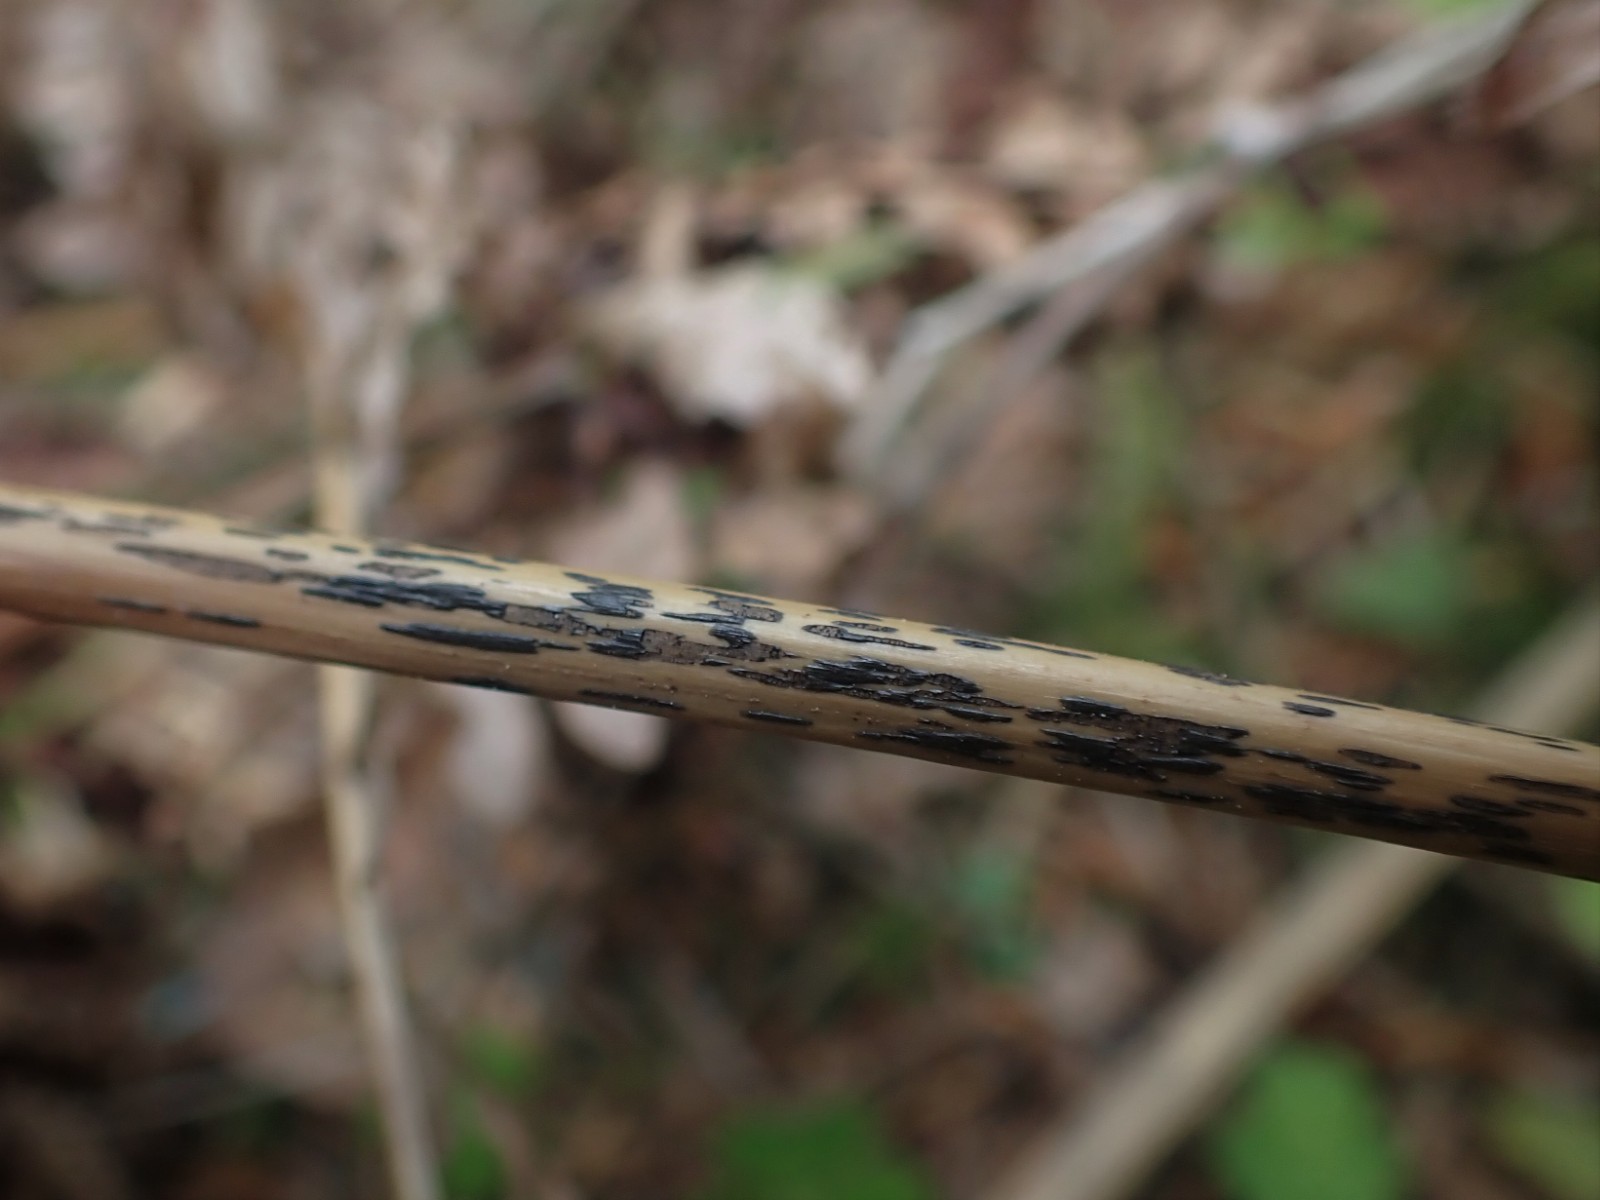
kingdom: Fungi
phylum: Ascomycota
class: Dothideomycetes
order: Pleosporales
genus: Rhopographus
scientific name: Rhopographus filicinus
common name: Bracken map
